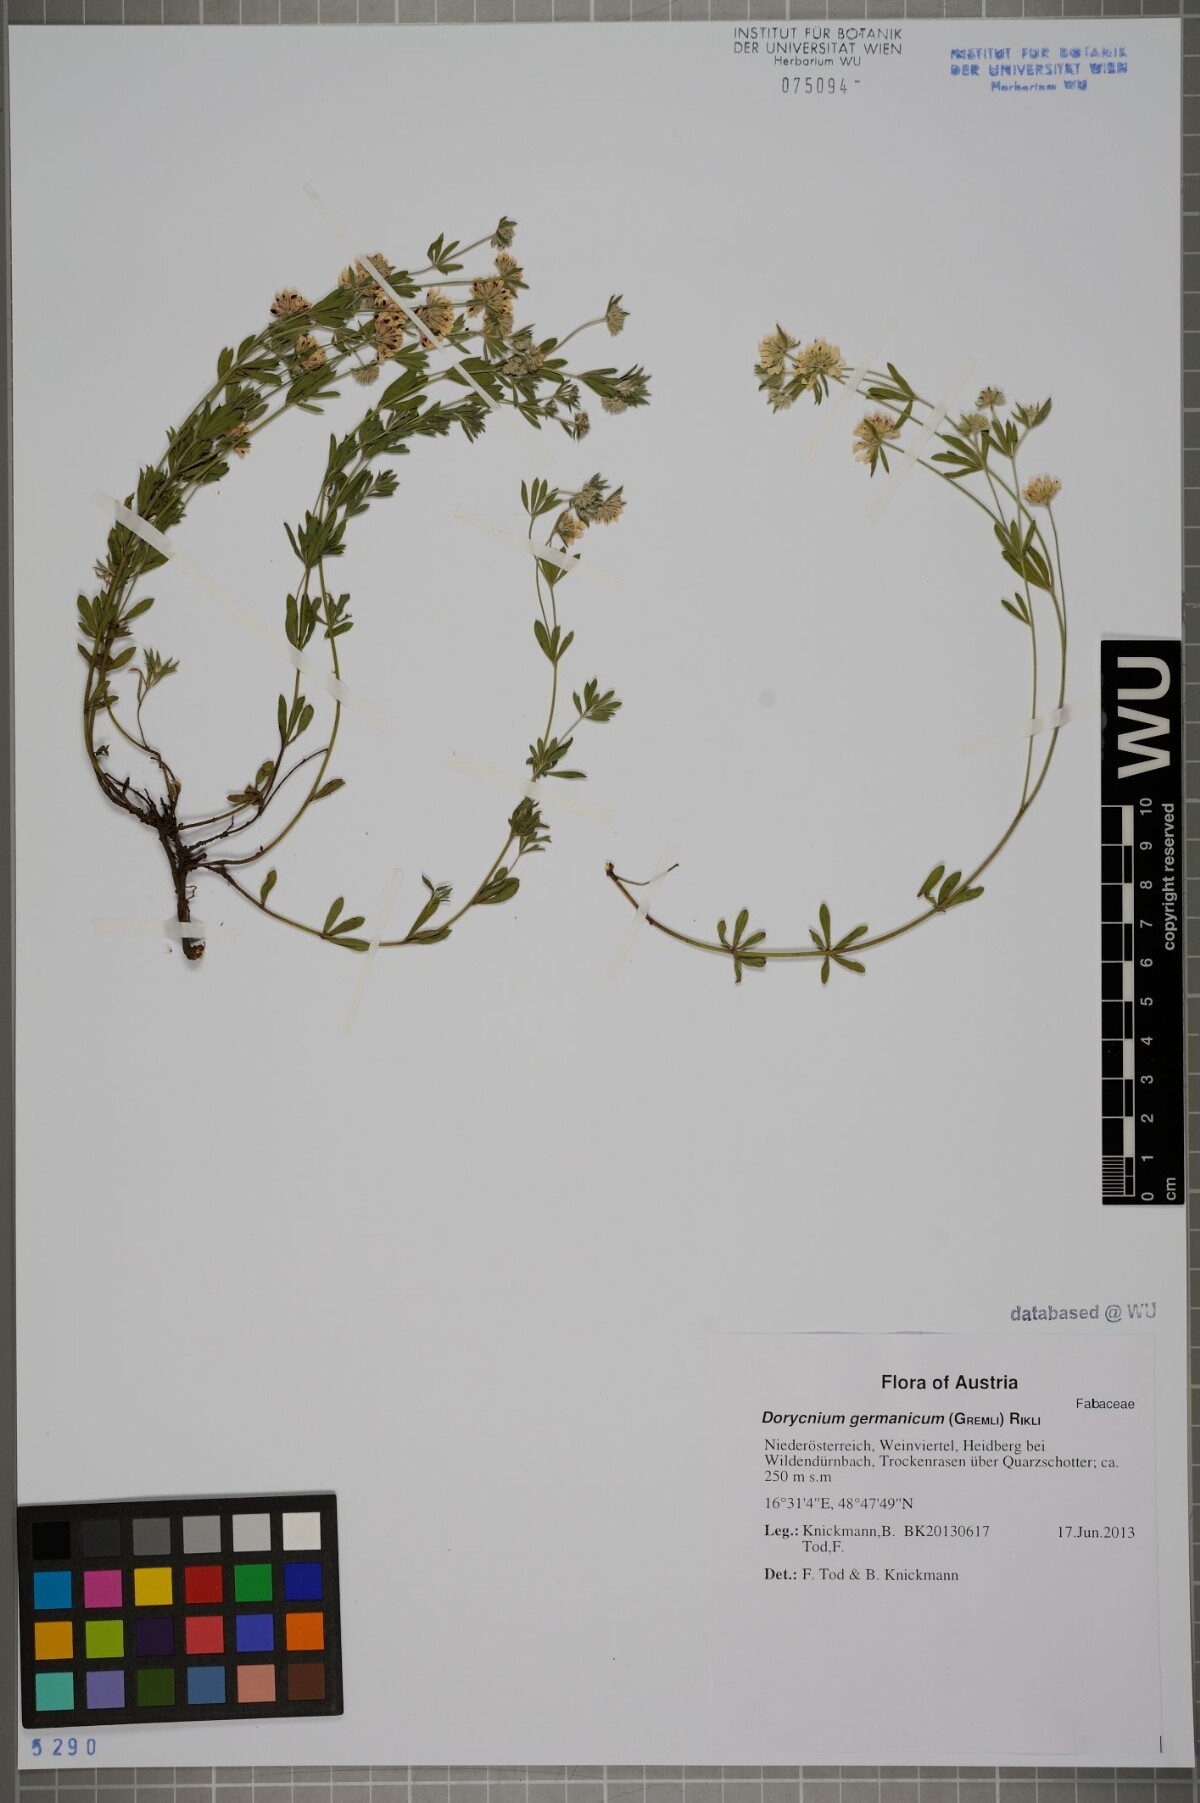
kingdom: Plantae
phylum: Tracheophyta
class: Magnoliopsida
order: Fabales
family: Fabaceae
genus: Lotus
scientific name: Lotus germanicus
